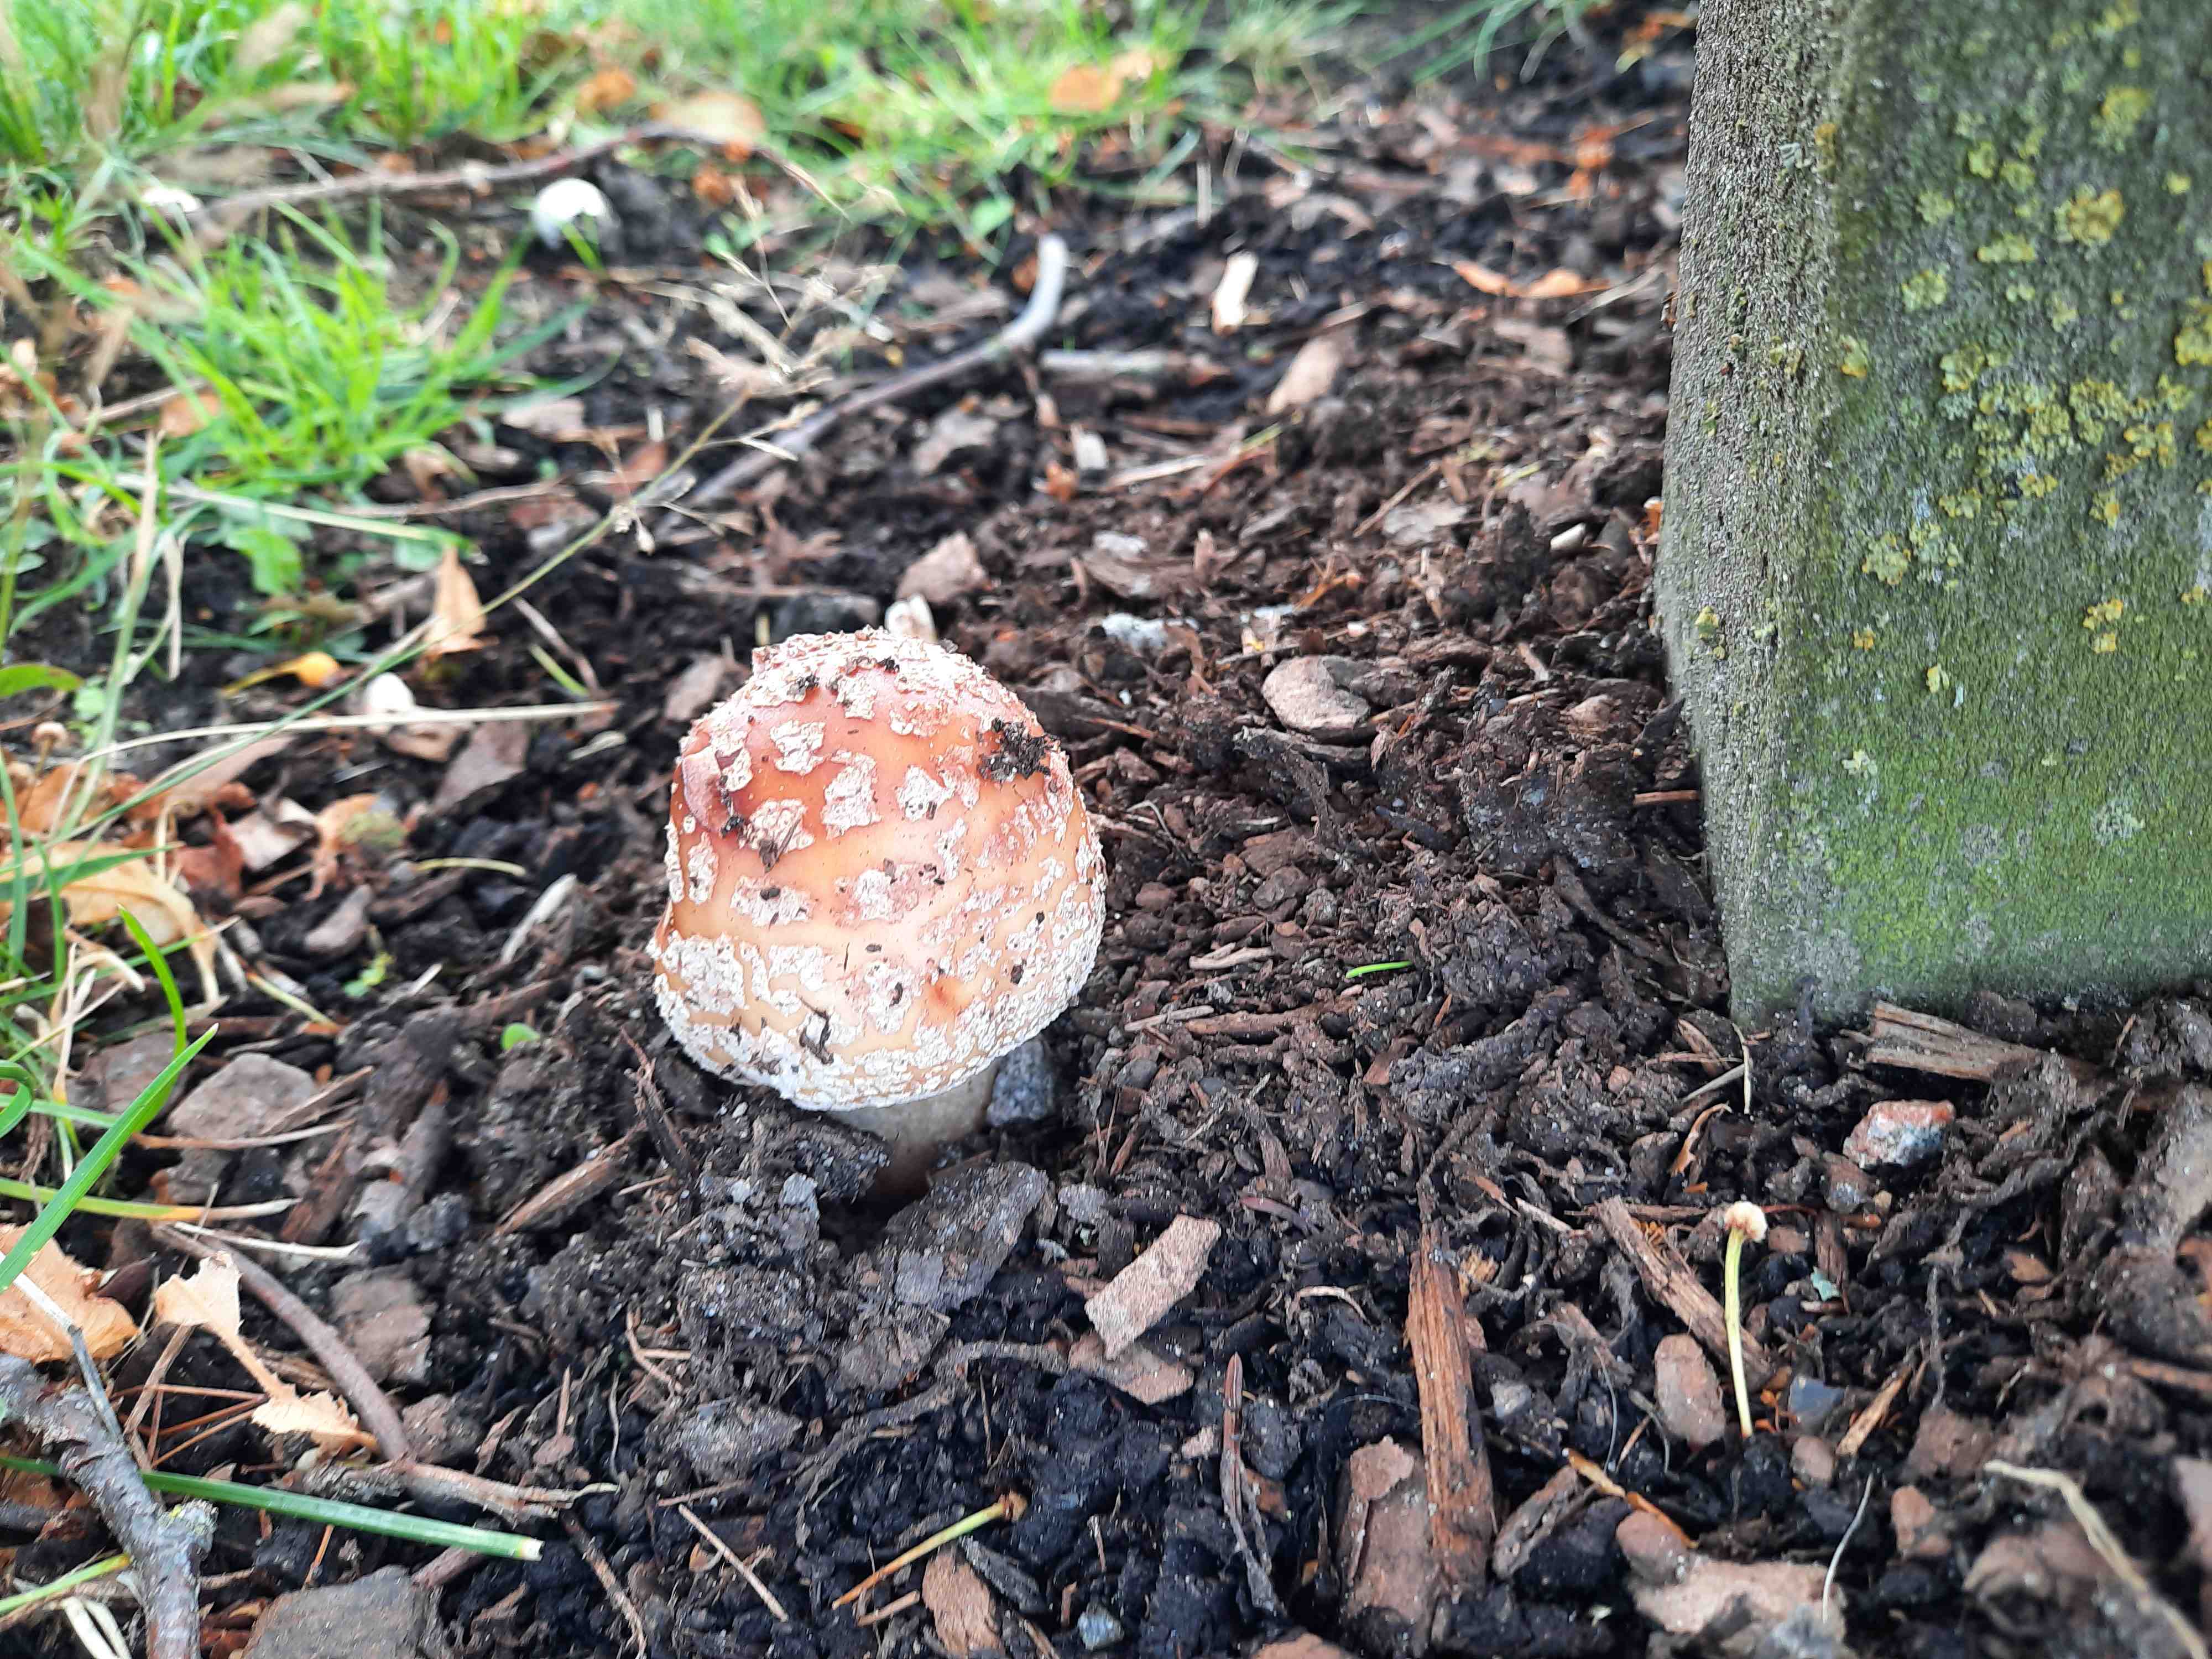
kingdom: Fungi
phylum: Basidiomycota
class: Agaricomycetes
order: Agaricales
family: Amanitaceae
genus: Amanita
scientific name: Amanita rubescens
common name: rødmende fluesvamp
